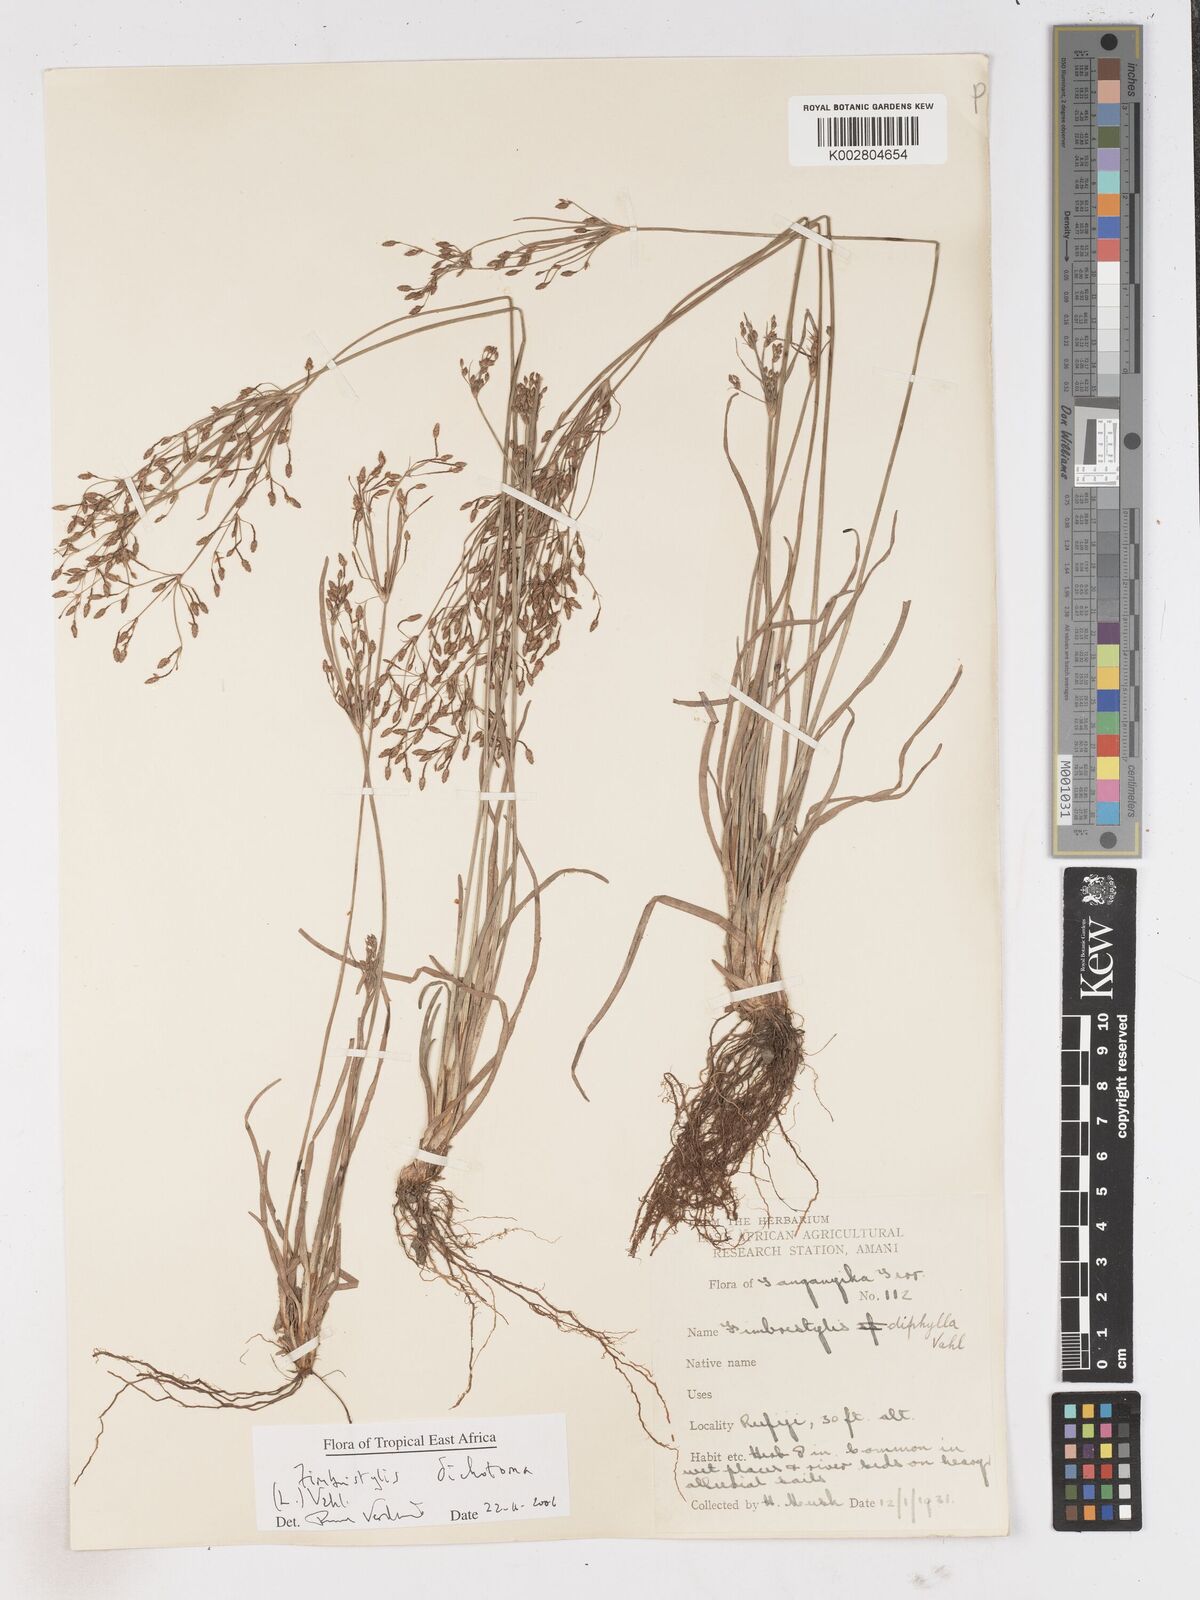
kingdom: Plantae
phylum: Tracheophyta
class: Liliopsida
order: Poales
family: Cyperaceae
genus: Fimbristylis
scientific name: Fimbristylis dichotoma
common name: Forked fimbry
